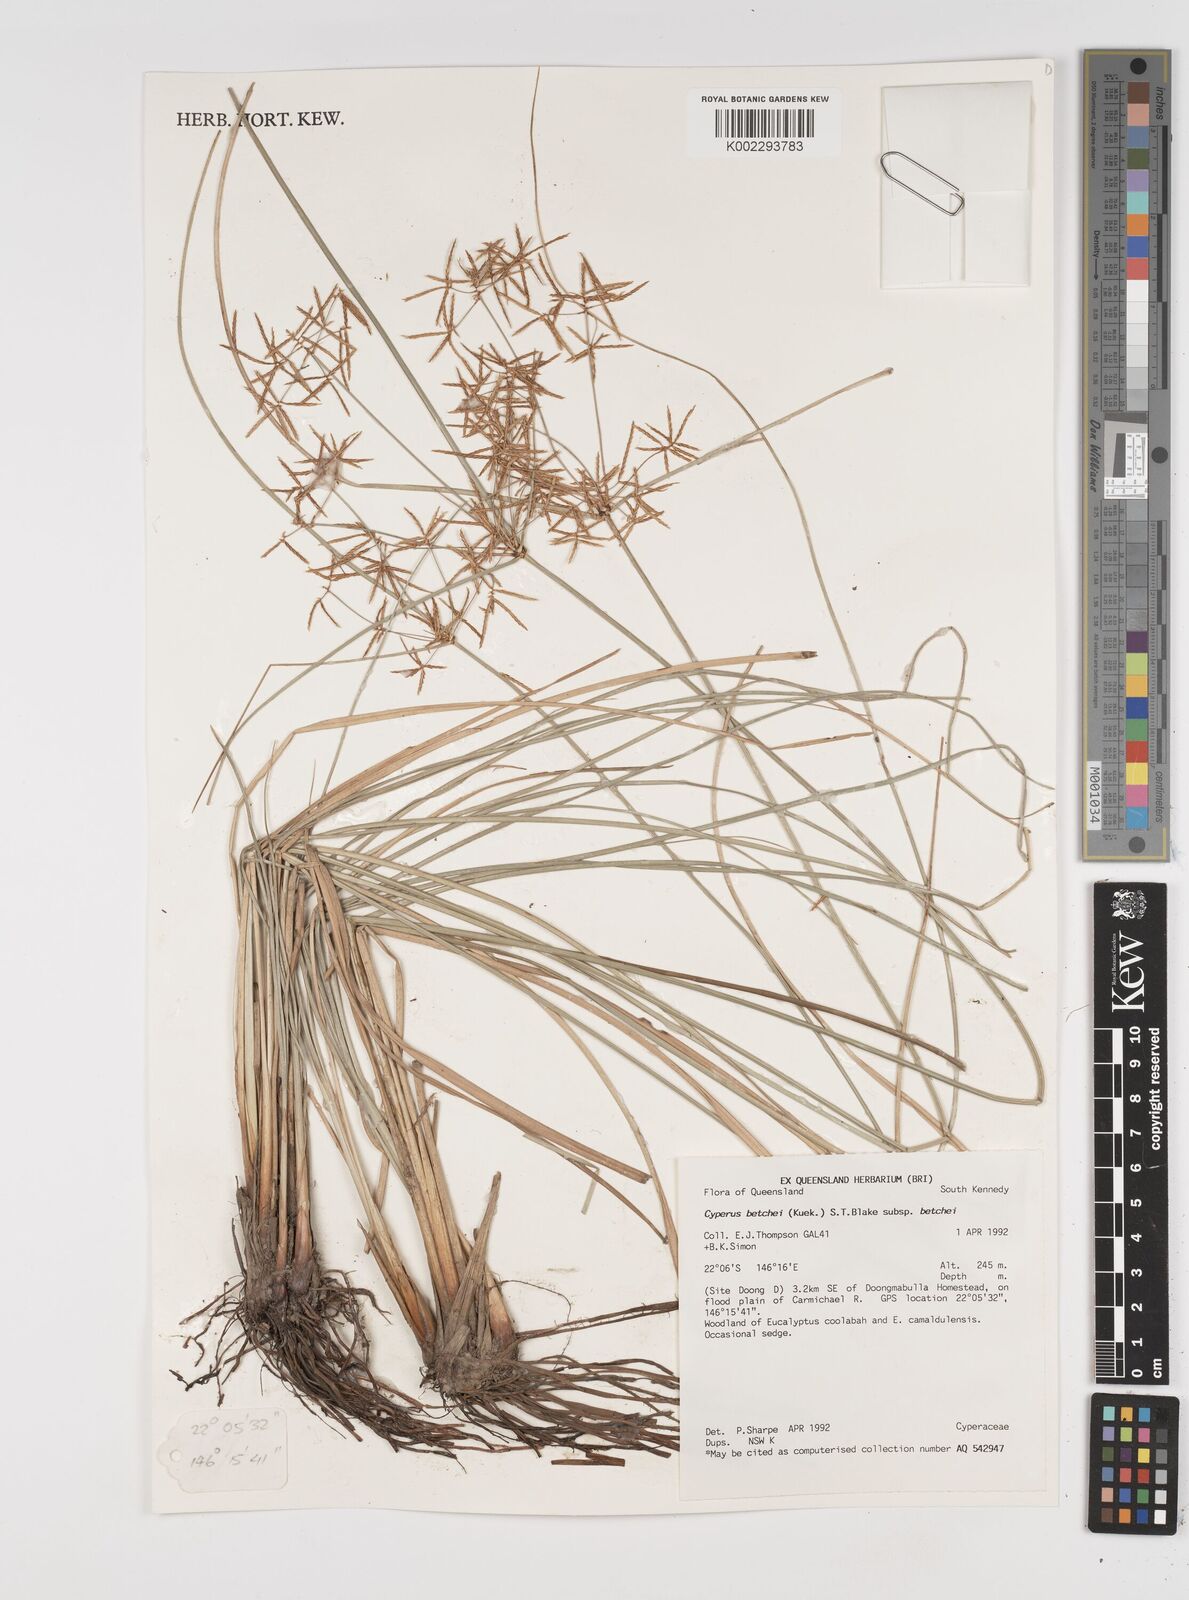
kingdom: Plantae
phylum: Tracheophyta
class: Liliopsida
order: Poales
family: Cyperaceae
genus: Cyperus
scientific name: Cyperus betchei
